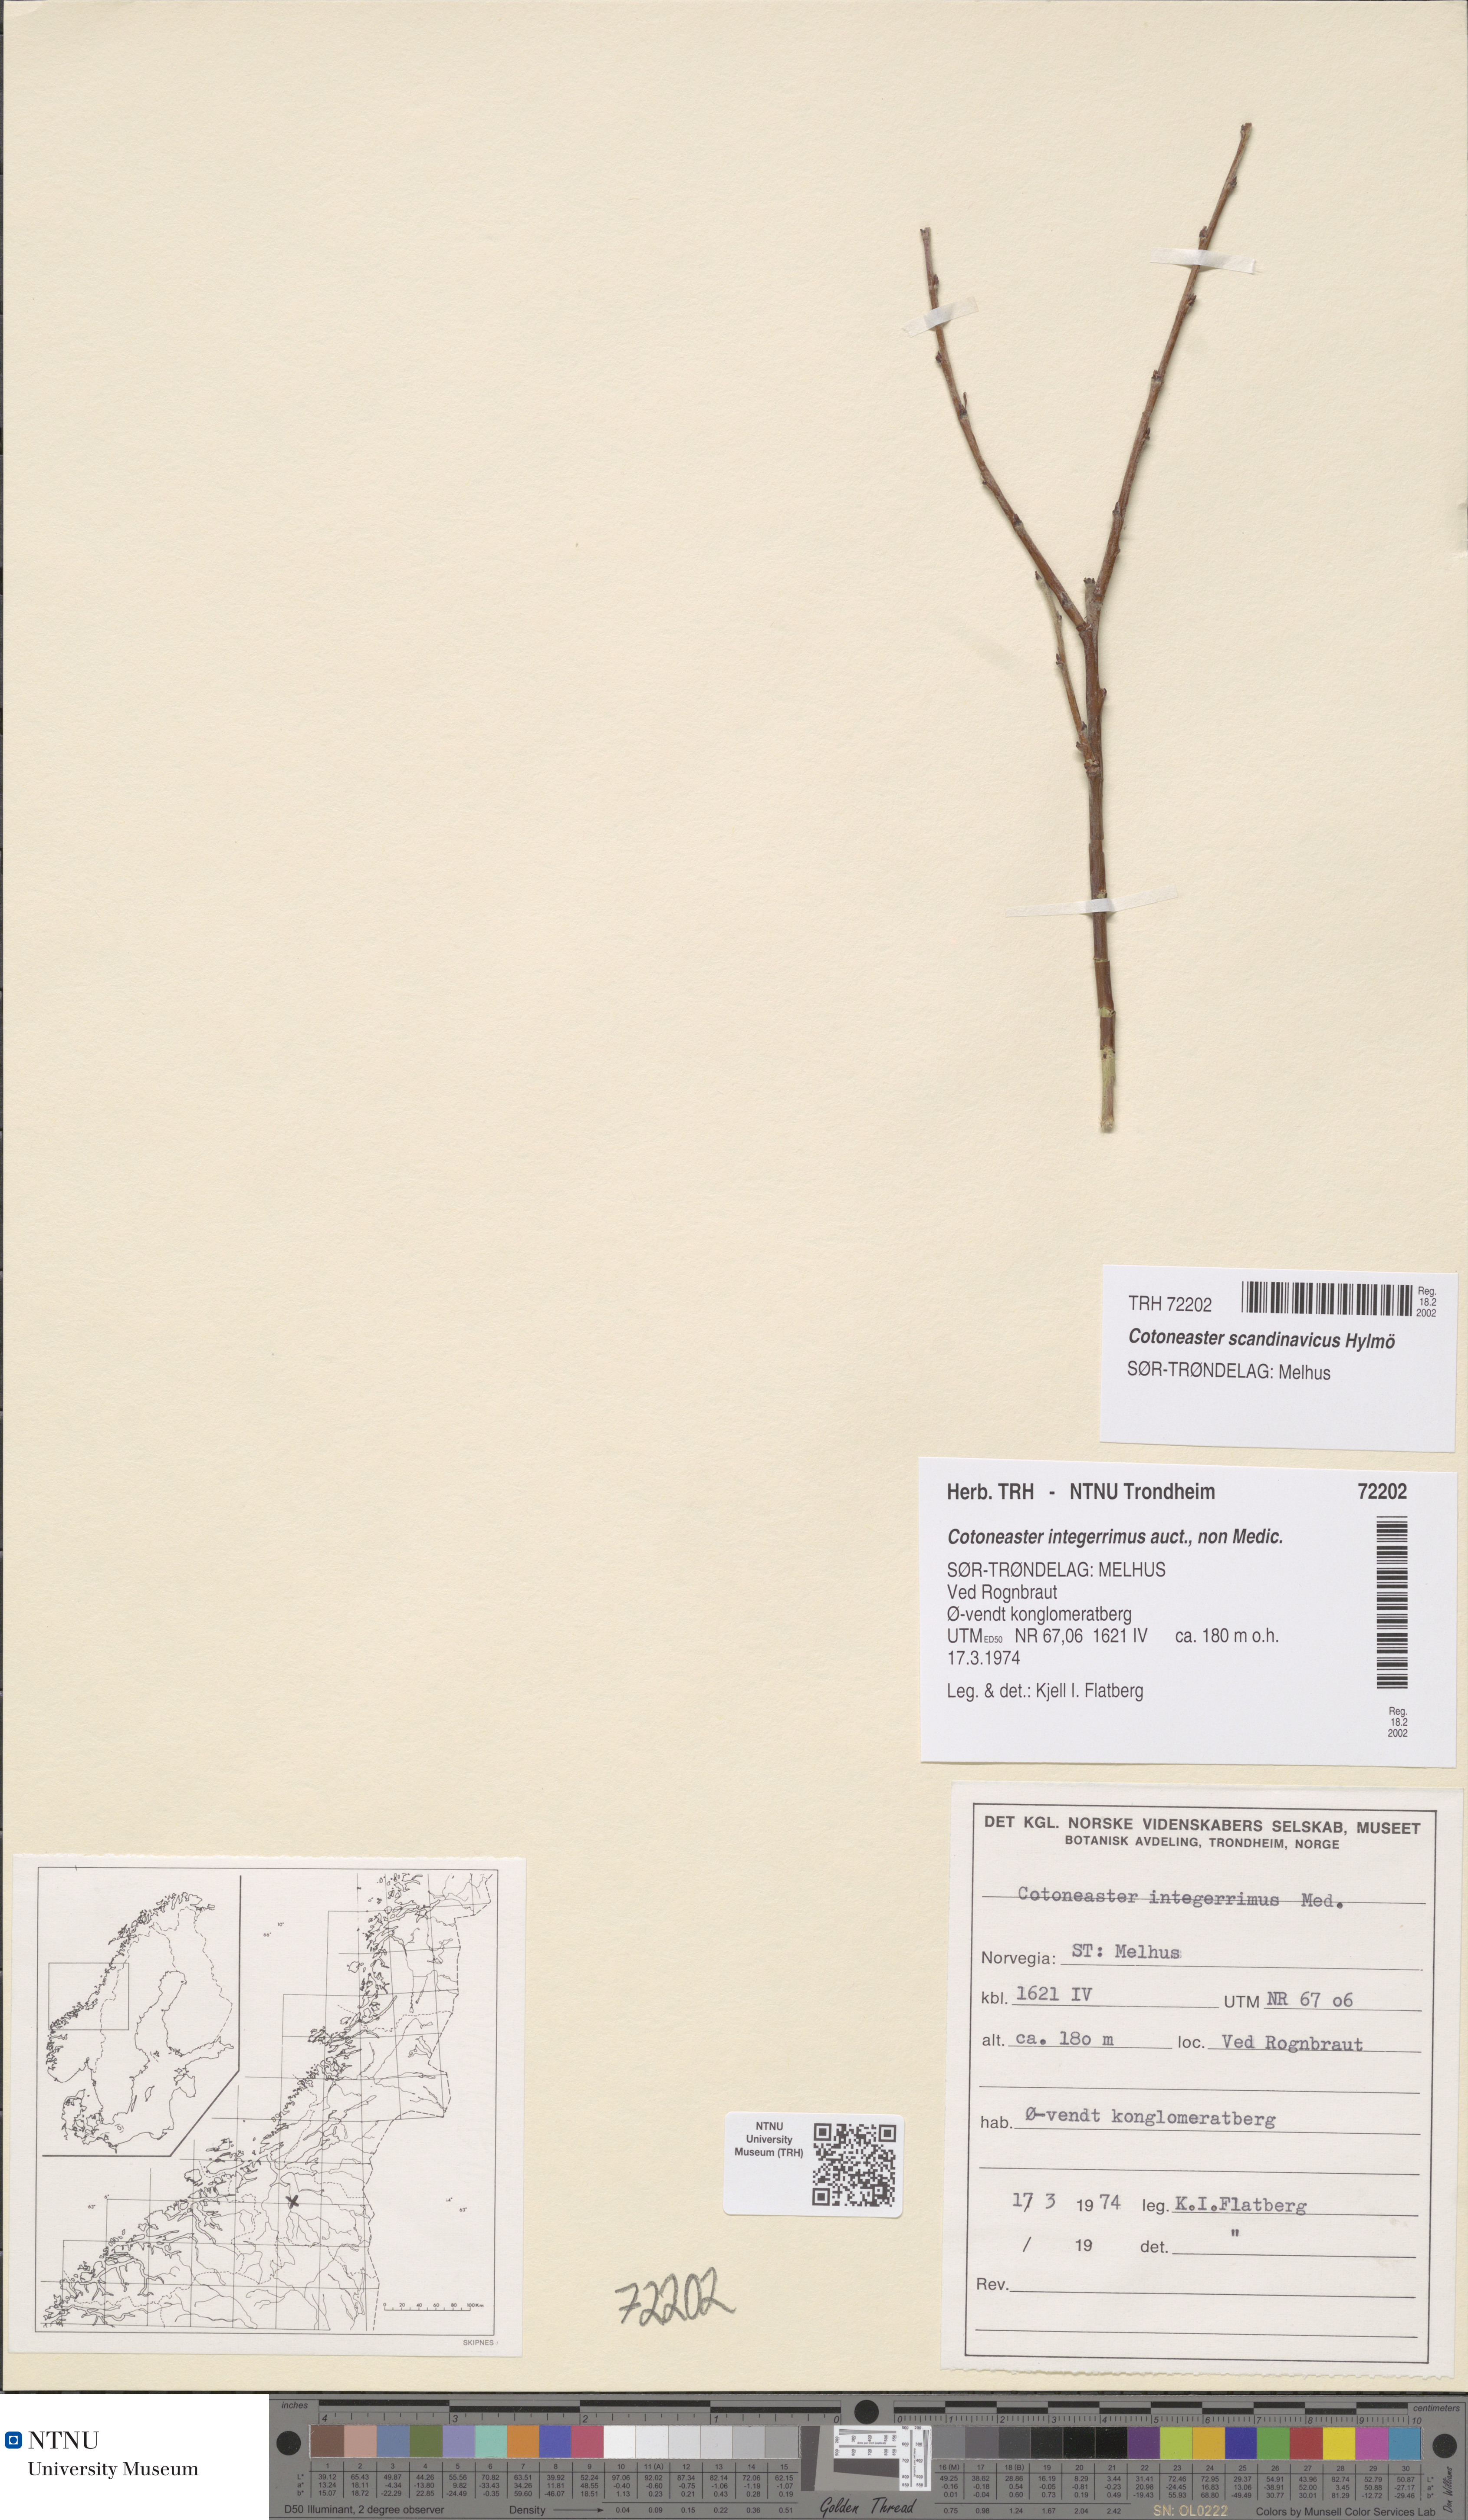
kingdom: Plantae
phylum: Tracheophyta
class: Magnoliopsida
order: Rosales
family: Rosaceae
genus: Cotoneaster
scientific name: Cotoneaster integerrimus
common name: Wild cotoneaster
